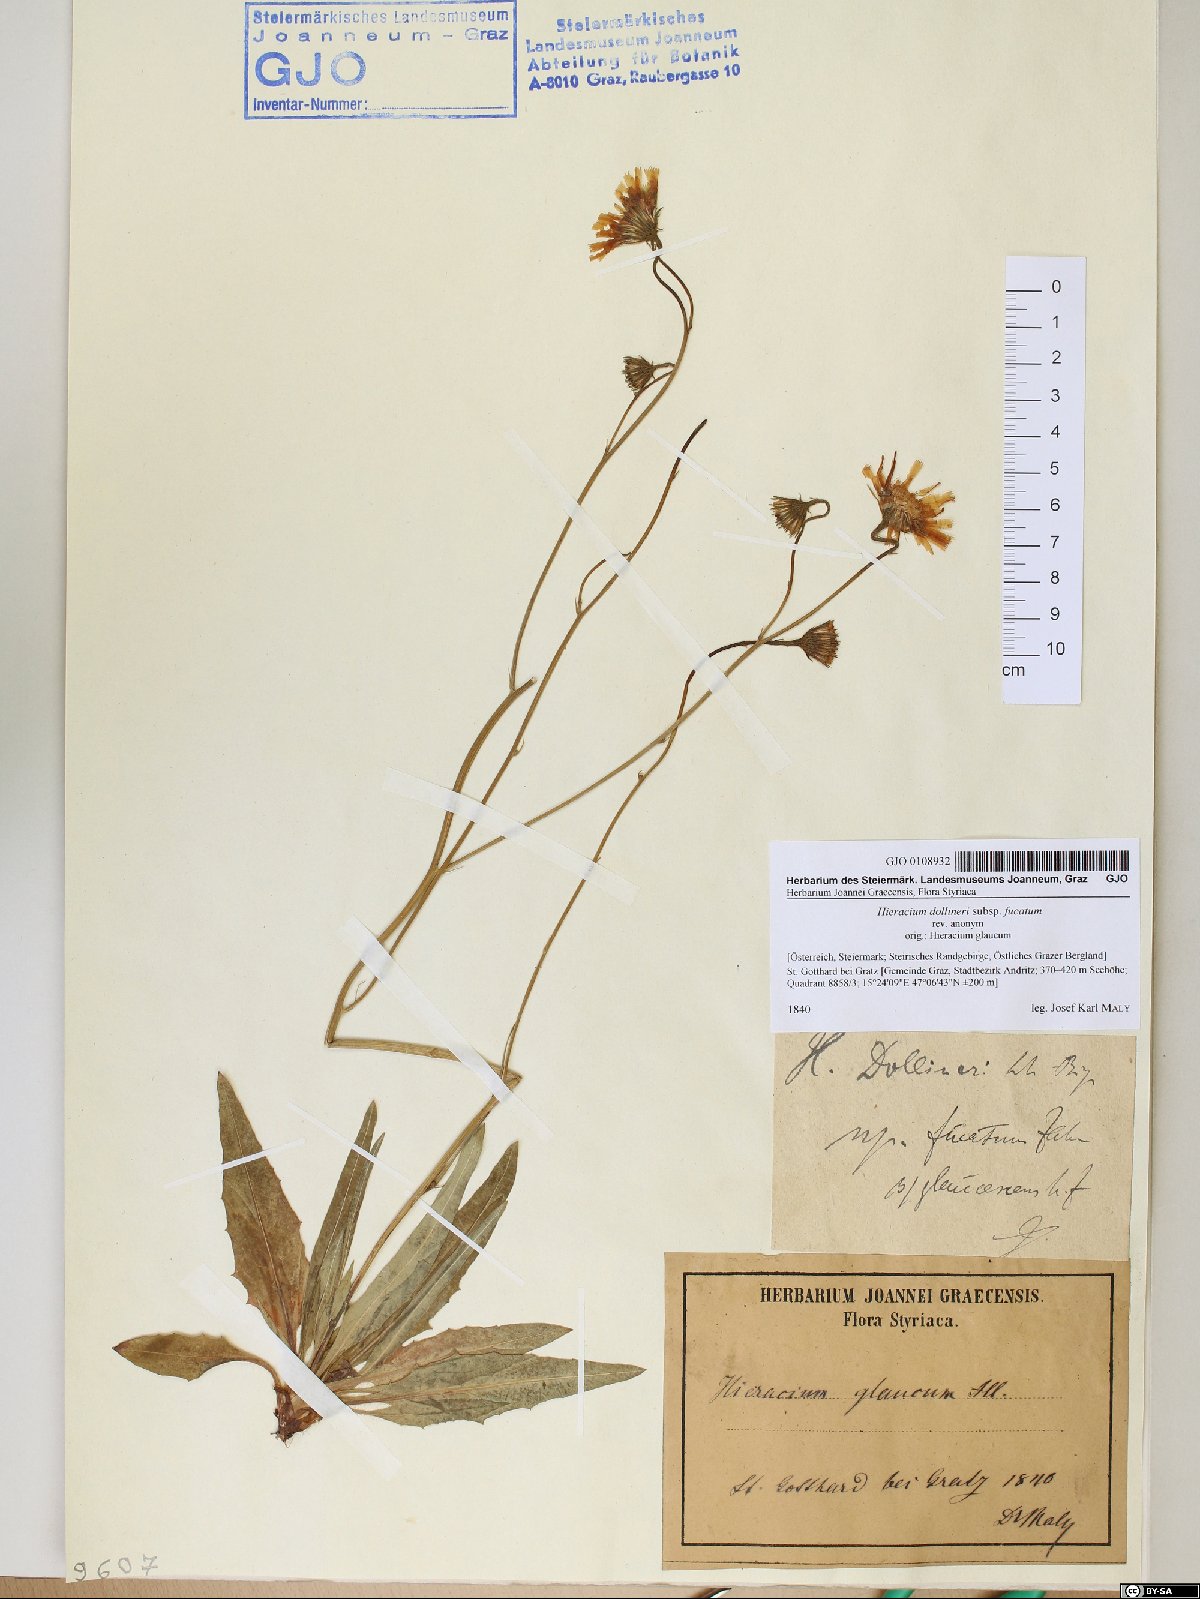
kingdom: Plantae
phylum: Tracheophyta
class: Magnoliopsida
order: Asterales
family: Asteraceae
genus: Hieracium
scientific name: Hieracium dollineri
